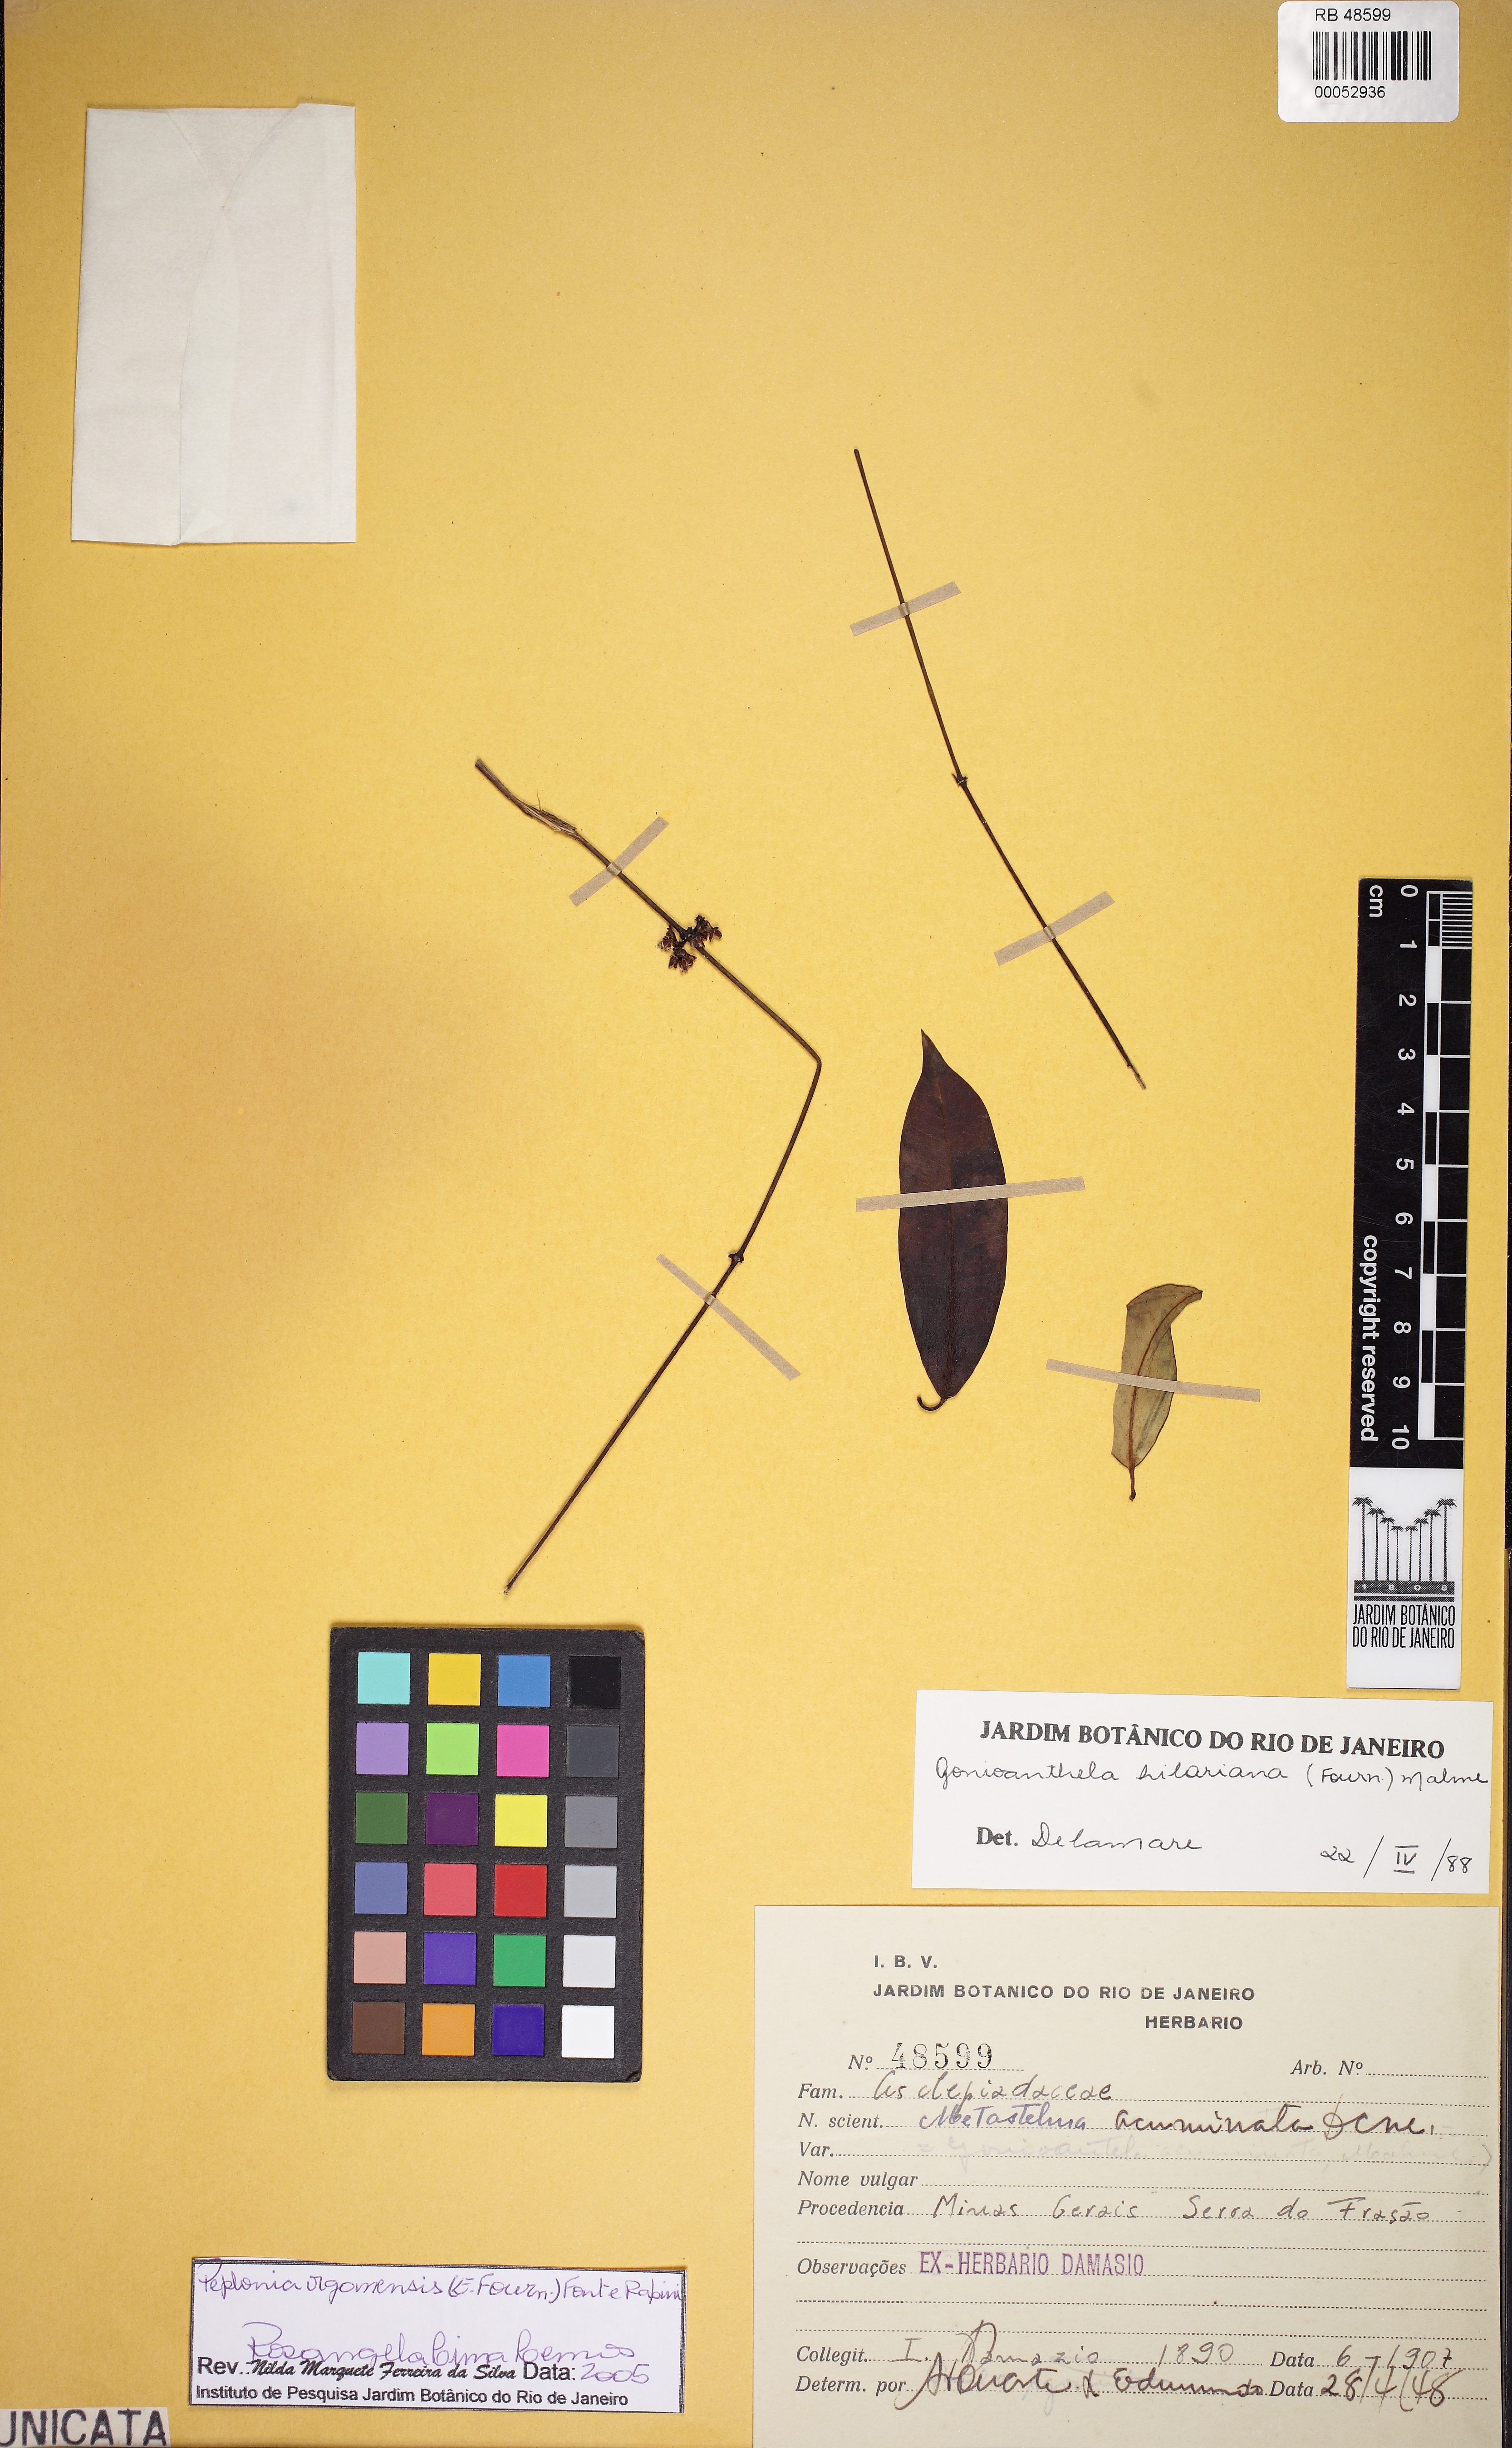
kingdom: Plantae
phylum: Tracheophyta
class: Magnoliopsida
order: Gentianales
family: Apocynaceae
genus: Peplonia
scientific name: Peplonia organensis
